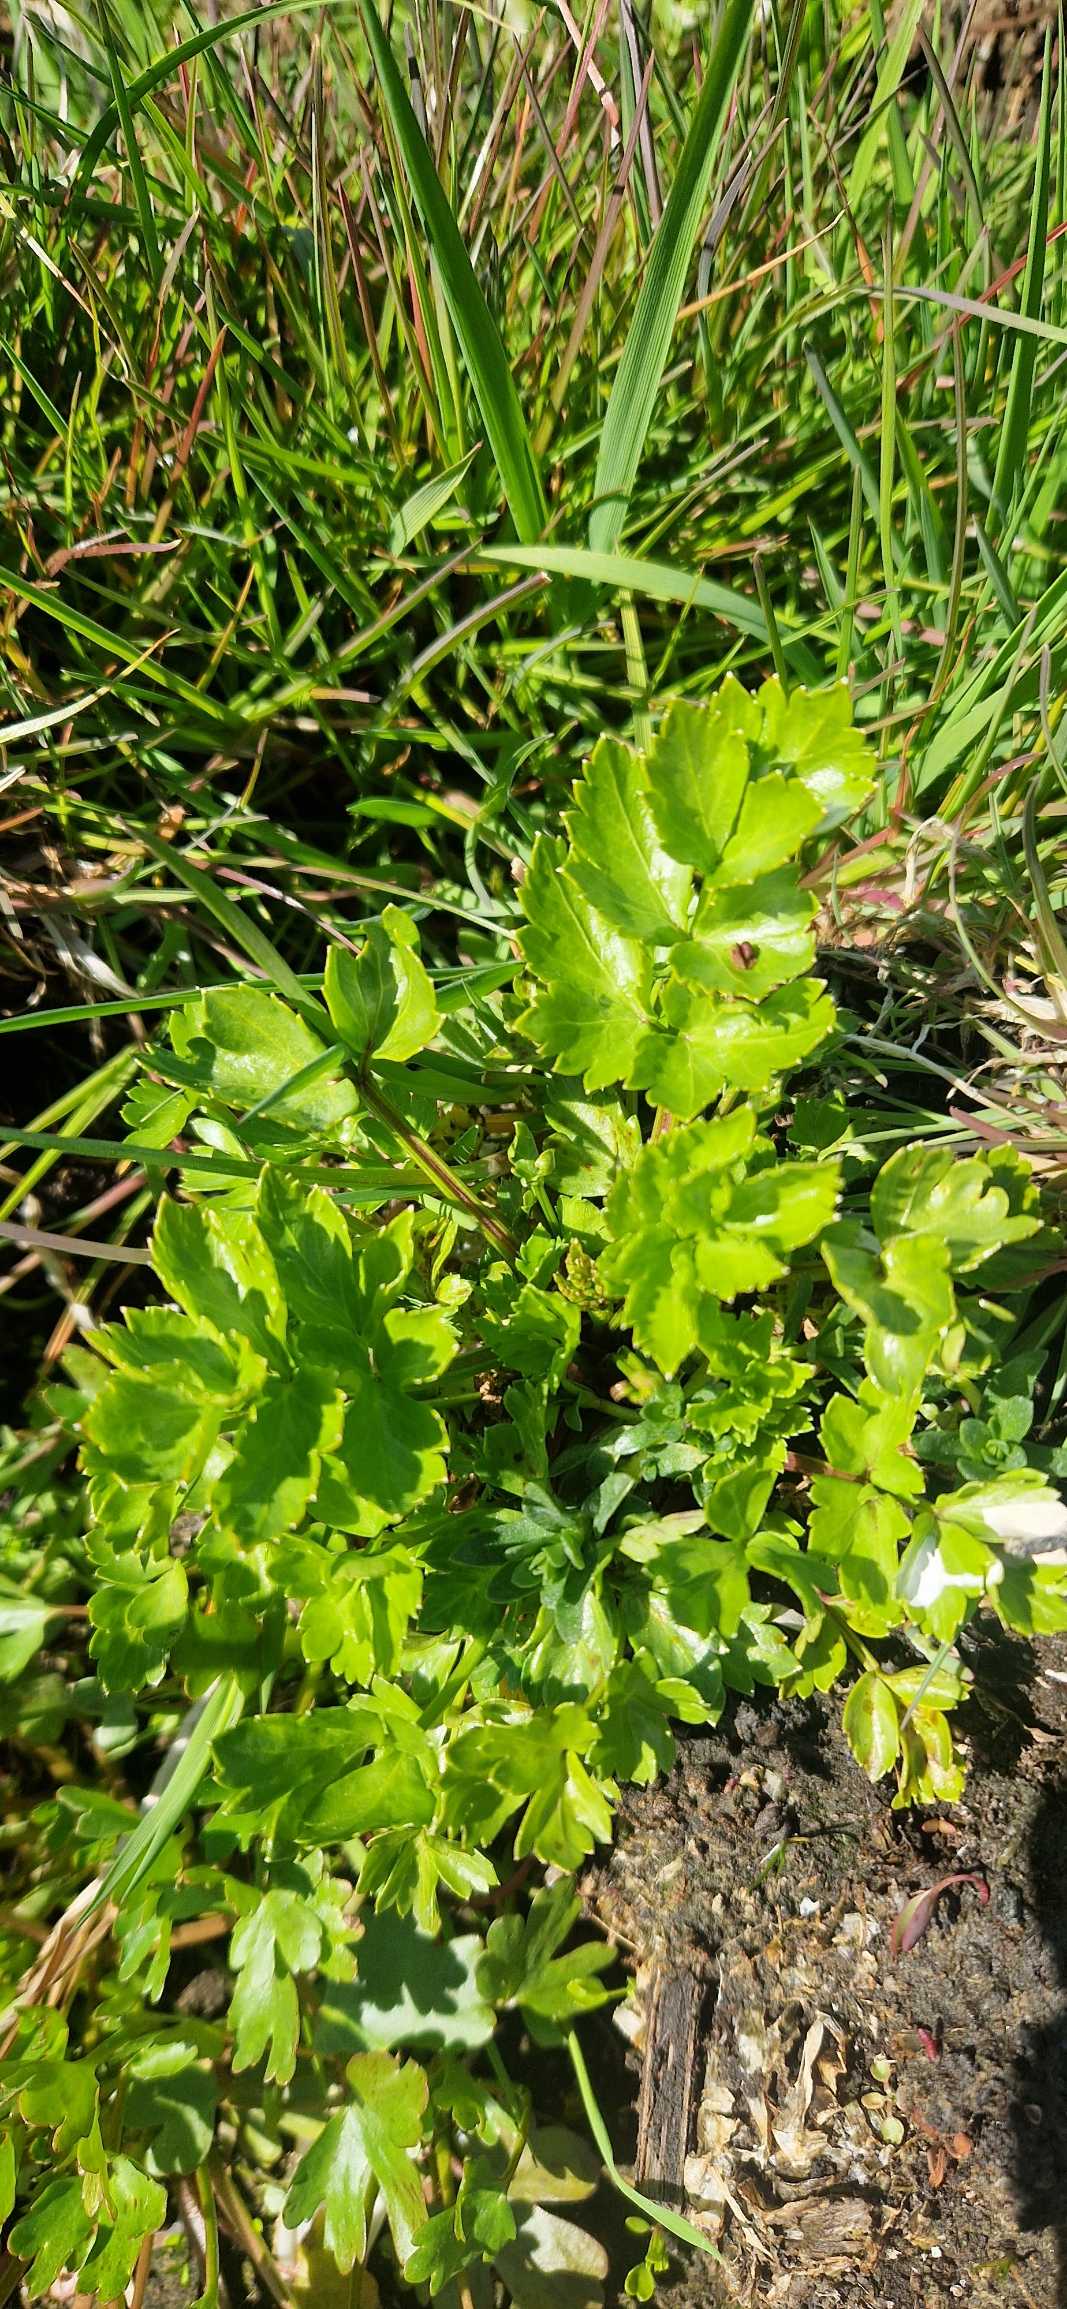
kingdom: Plantae
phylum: Tracheophyta
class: Magnoliopsida
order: Apiales
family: Apiaceae
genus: Apium
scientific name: Apium graveolens
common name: Vild selleri
